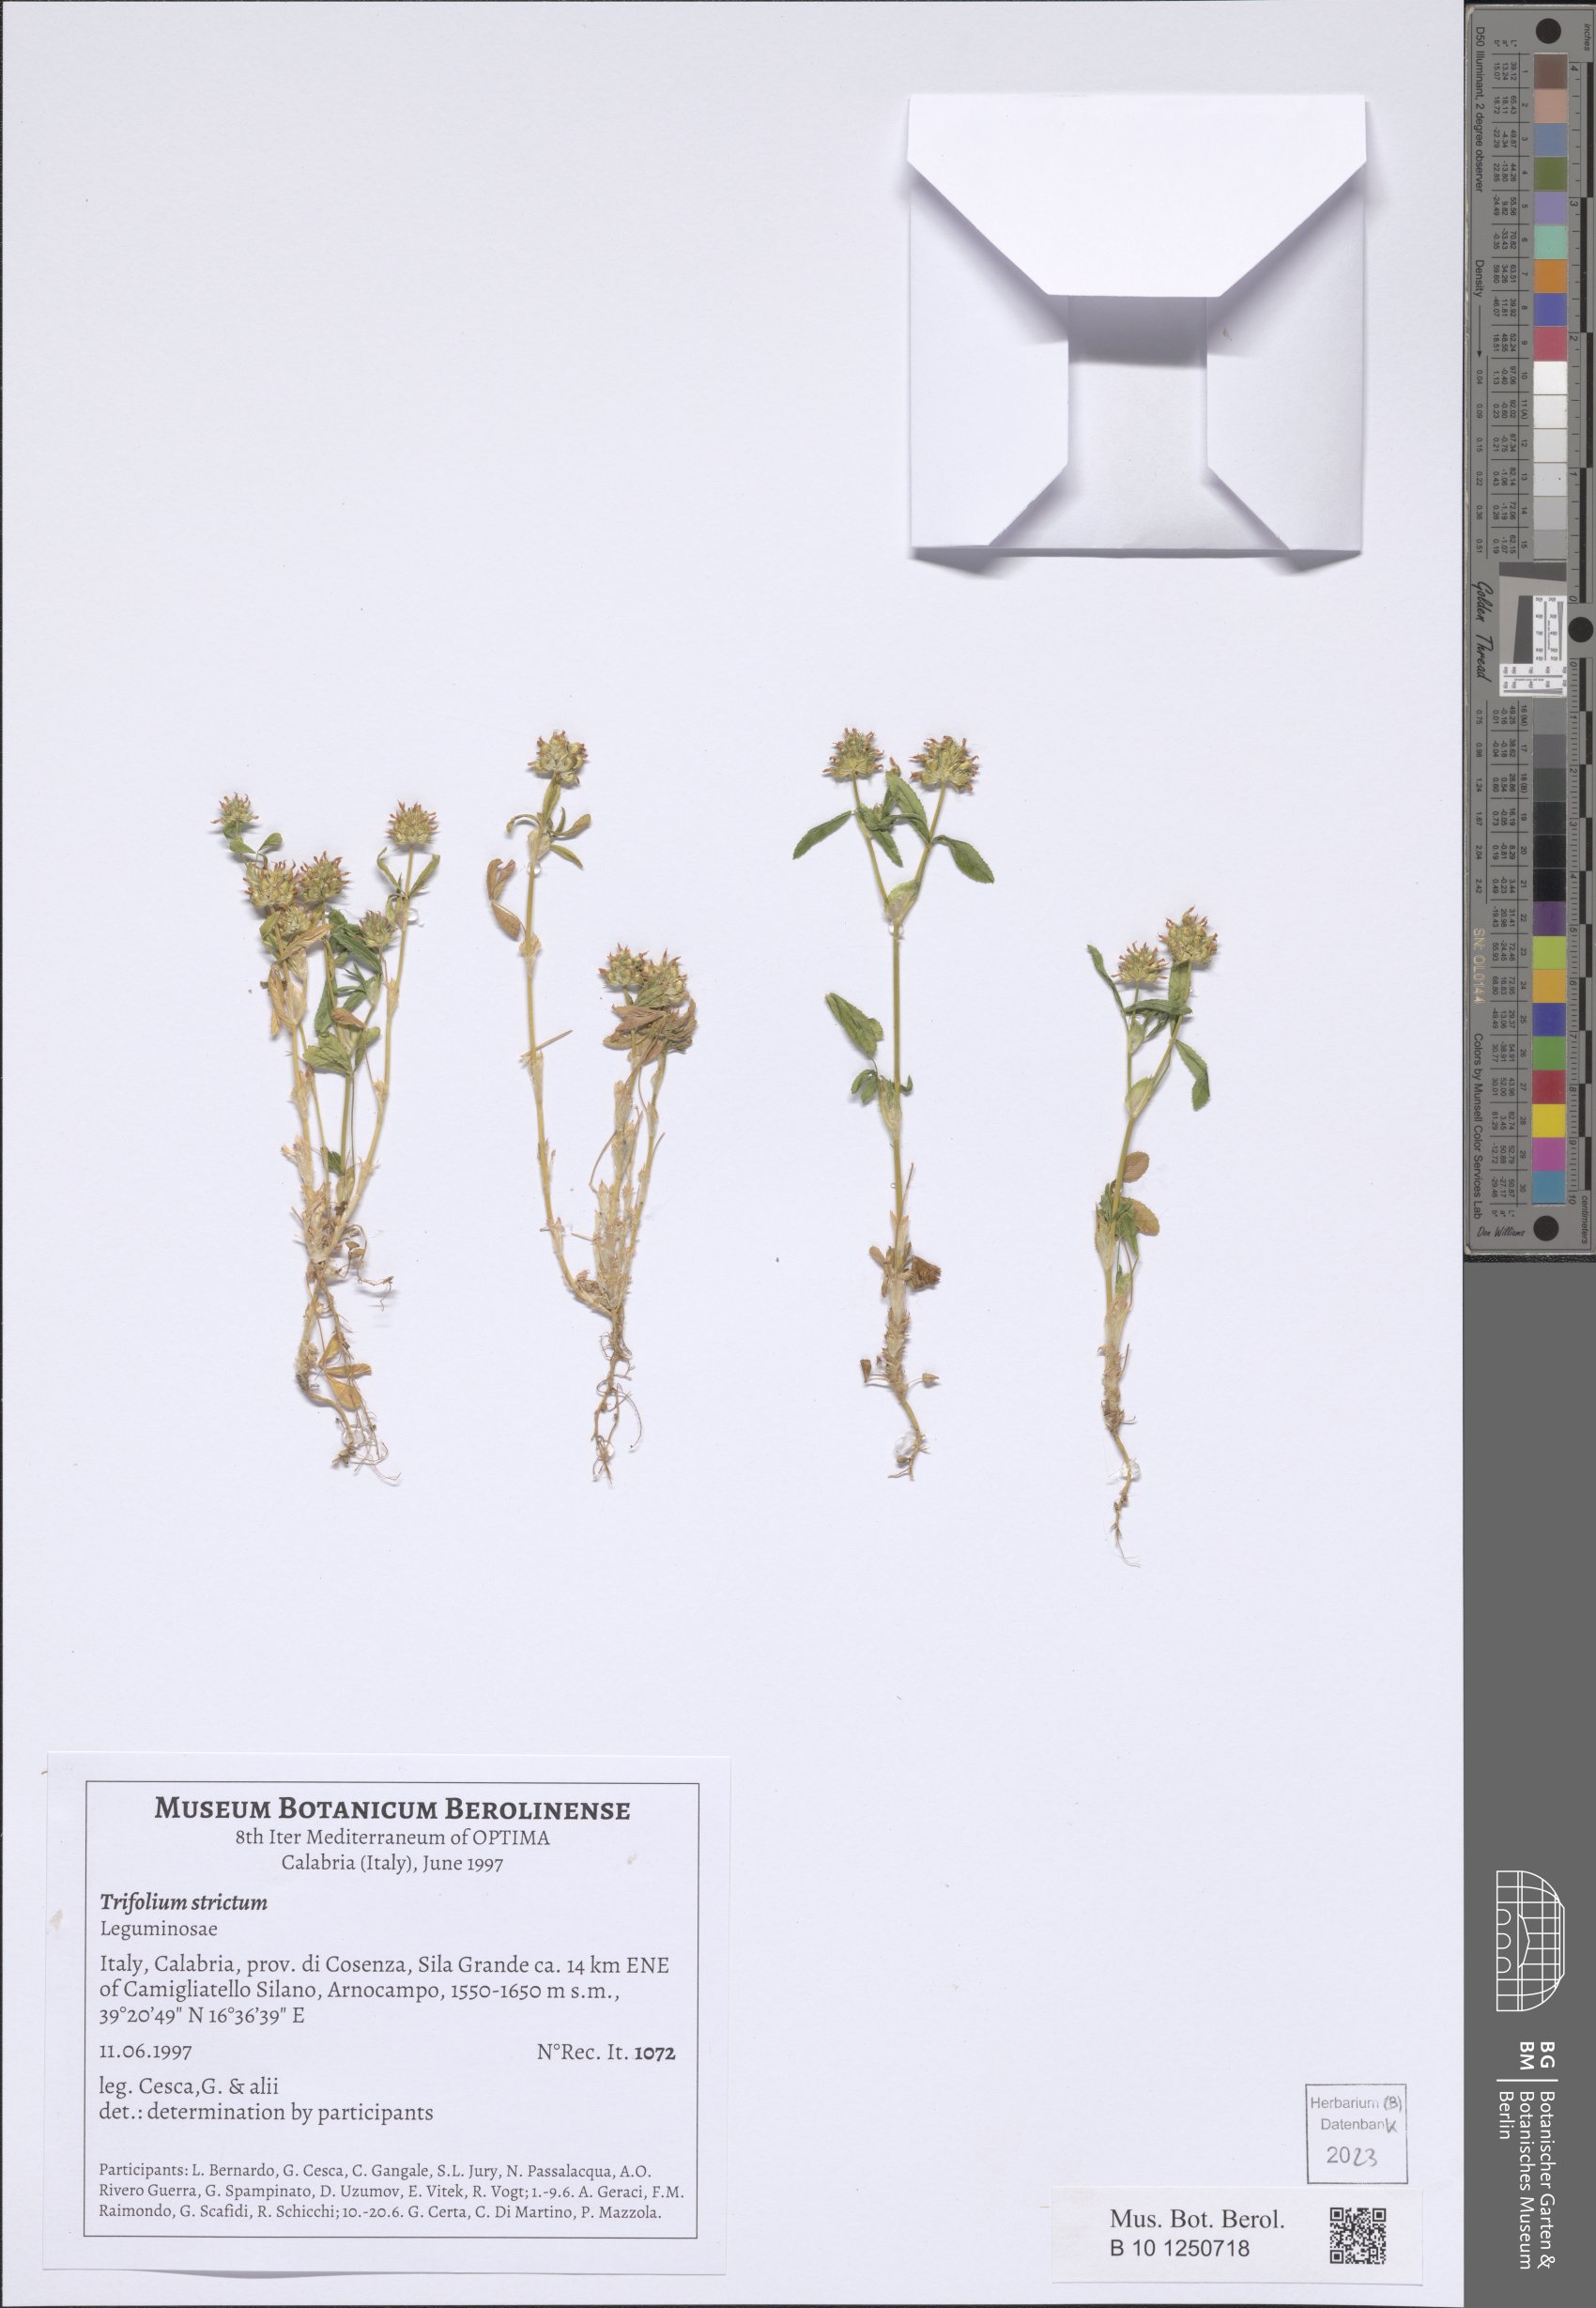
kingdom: Plantae
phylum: Tracheophyta
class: Magnoliopsida
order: Fabales
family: Fabaceae
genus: Trifolium
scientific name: Trifolium strictum
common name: Upright clover
